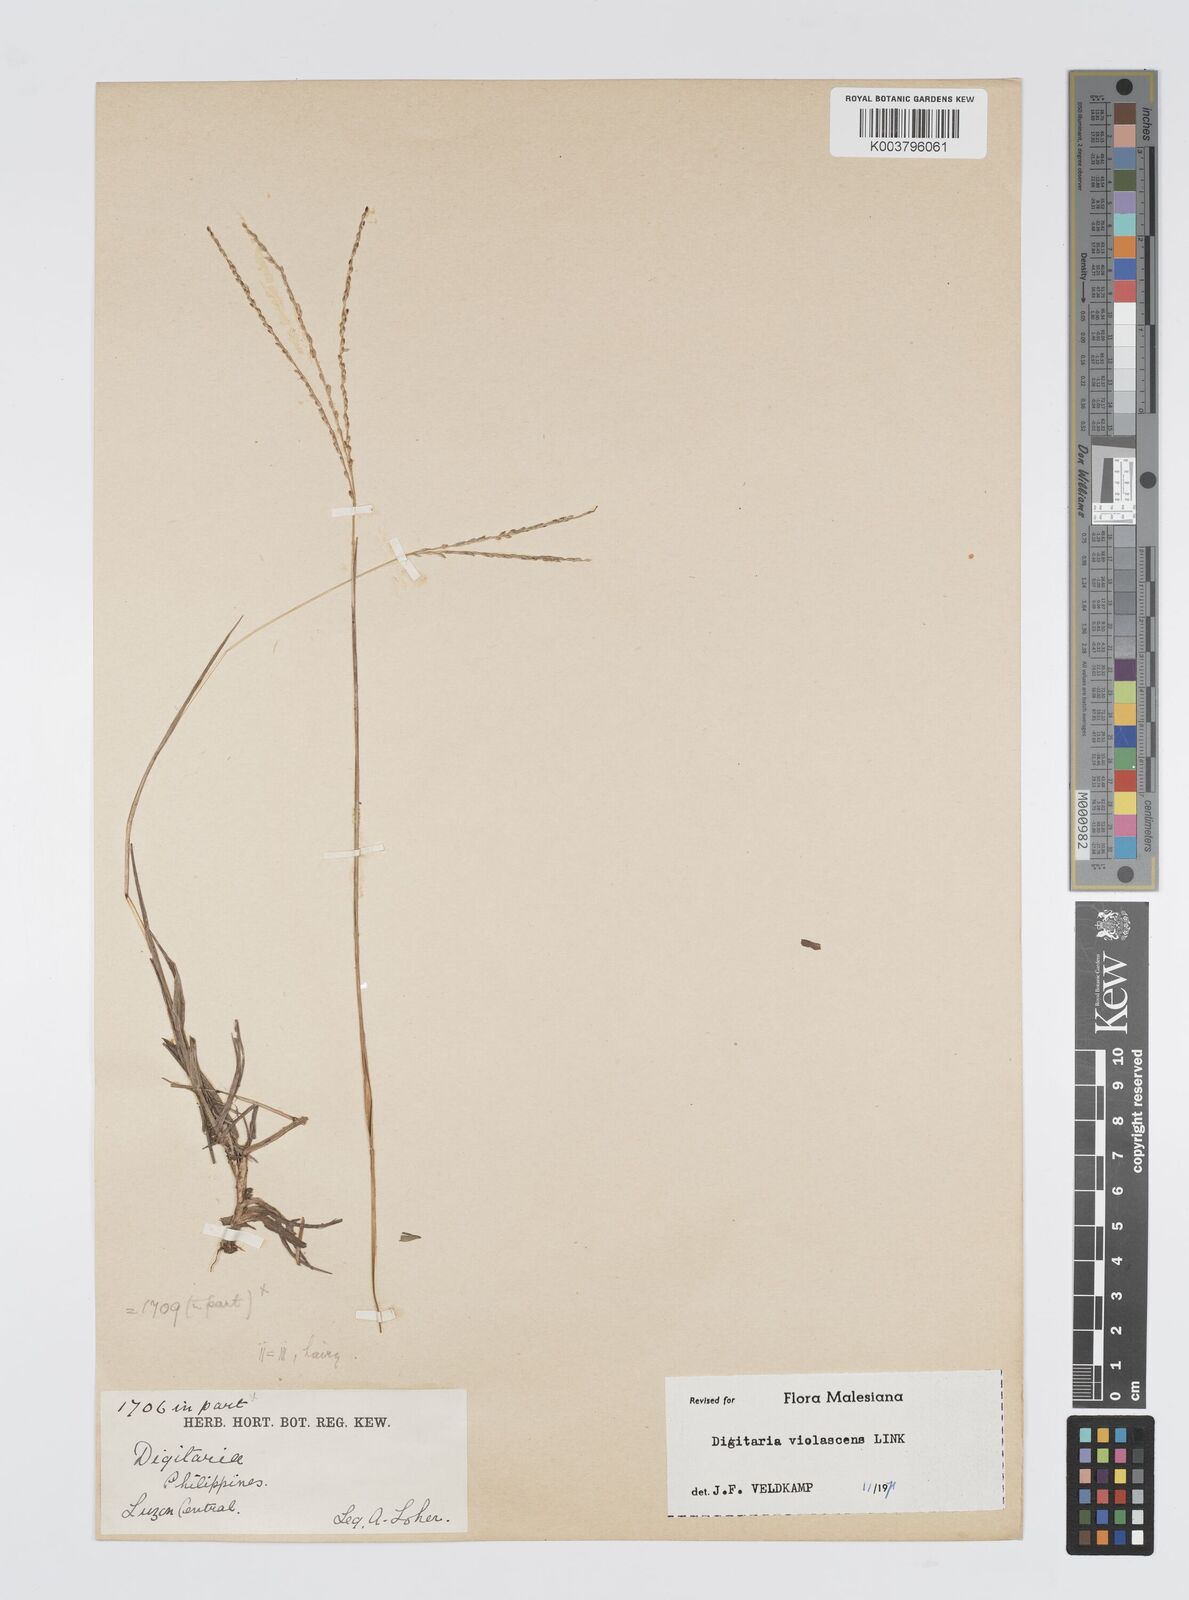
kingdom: Plantae
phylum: Tracheophyta
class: Liliopsida
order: Poales
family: Poaceae
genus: Digitaria
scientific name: Digitaria violascens
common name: Violet crabgrass
